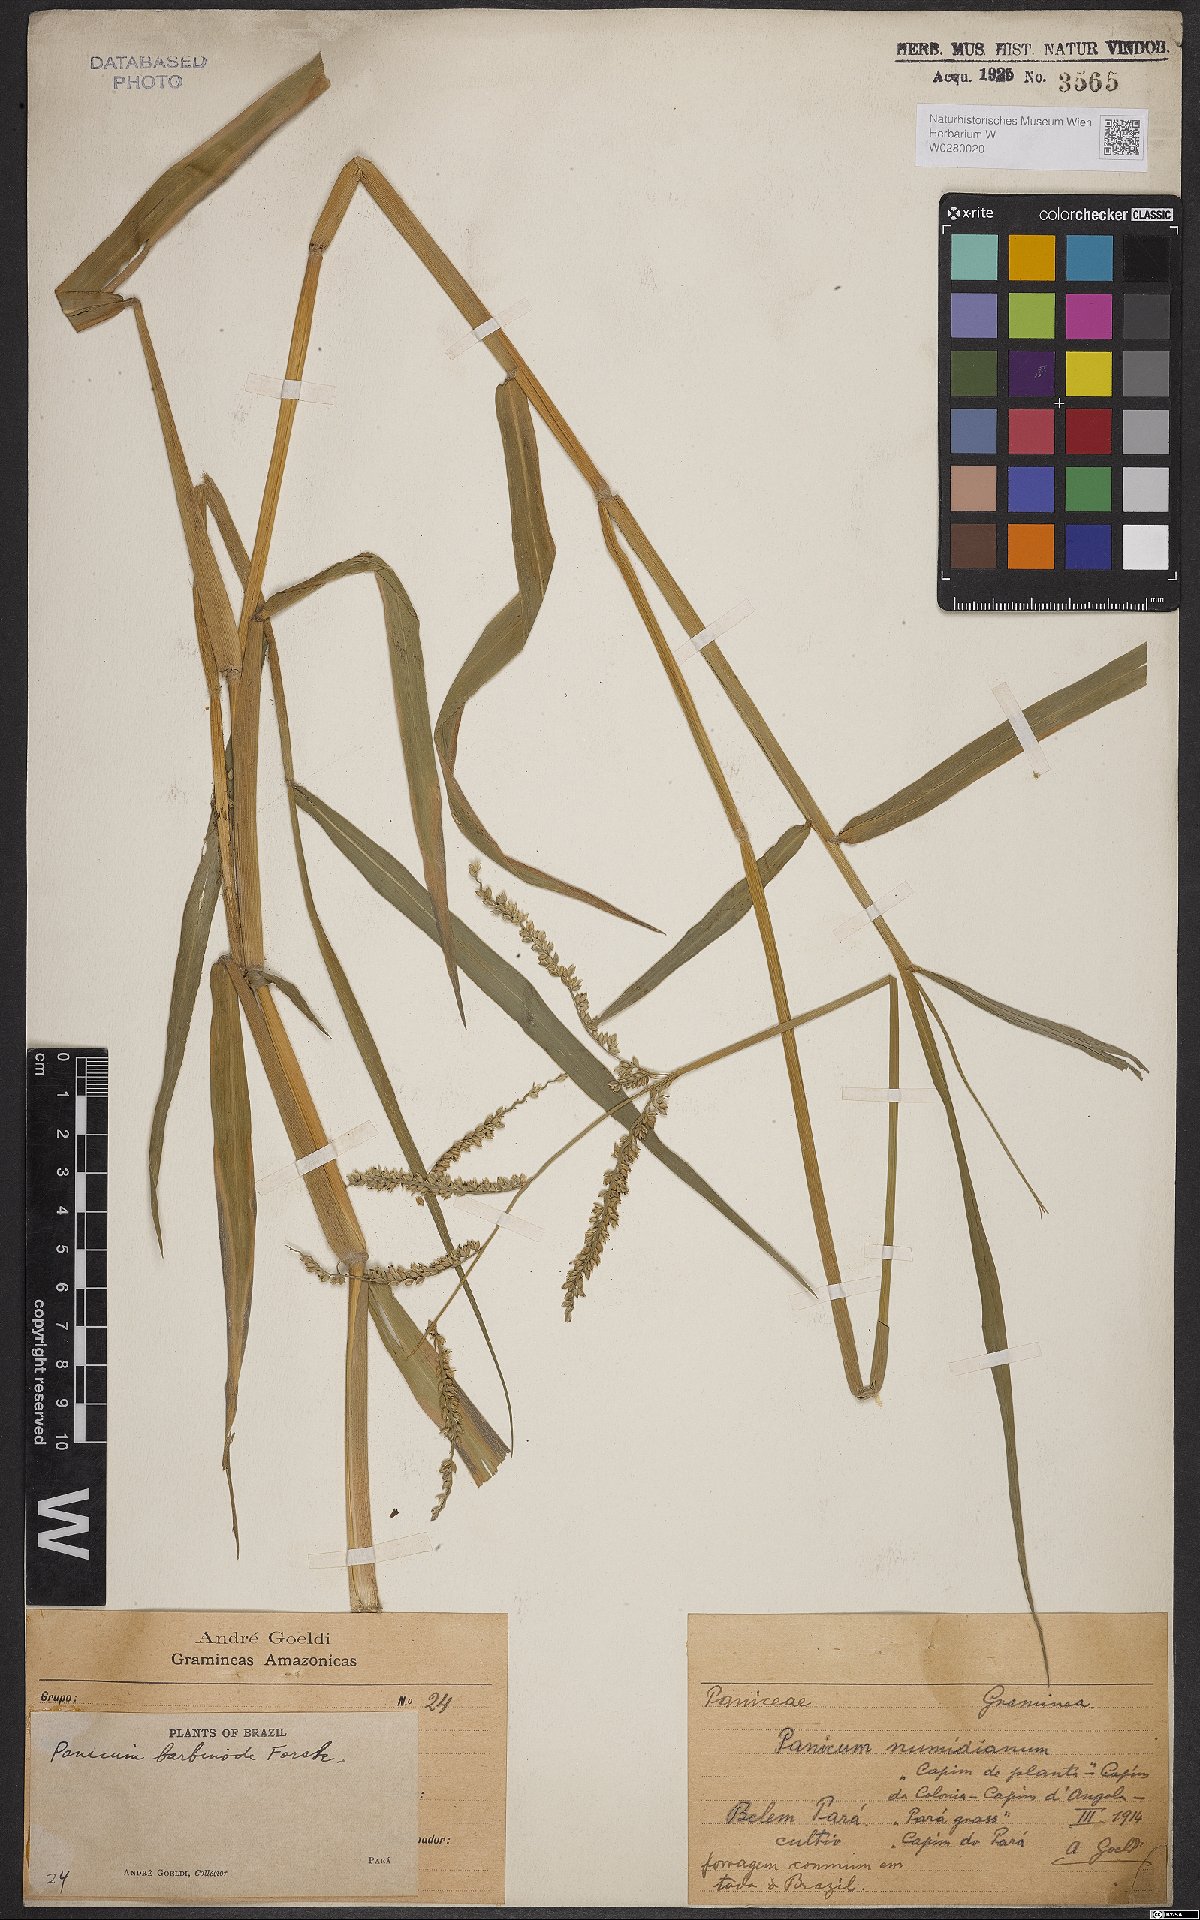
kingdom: Plantae
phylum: Tracheophyta
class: Liliopsida
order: Poales
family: Poaceae
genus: Urochloa
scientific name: Urochloa mutica
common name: Para grass
